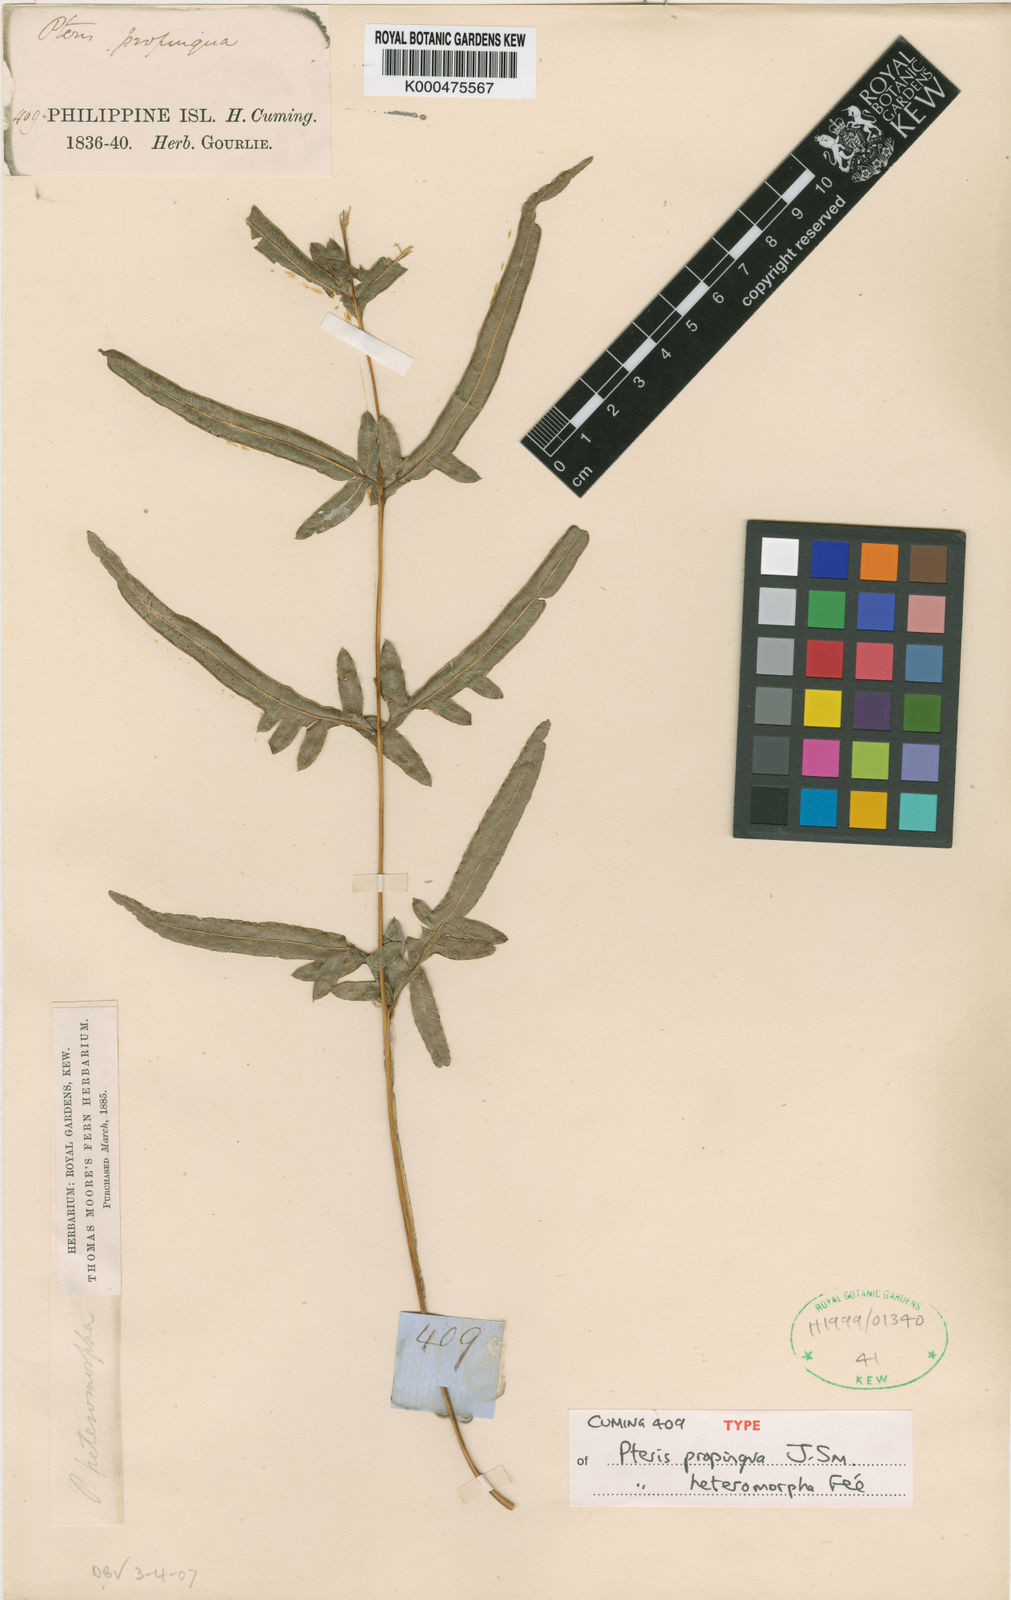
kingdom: Plantae
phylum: Tracheophyta
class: Polypodiopsida
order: Polypodiales
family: Pteridaceae
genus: Pteris
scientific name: Pteris
